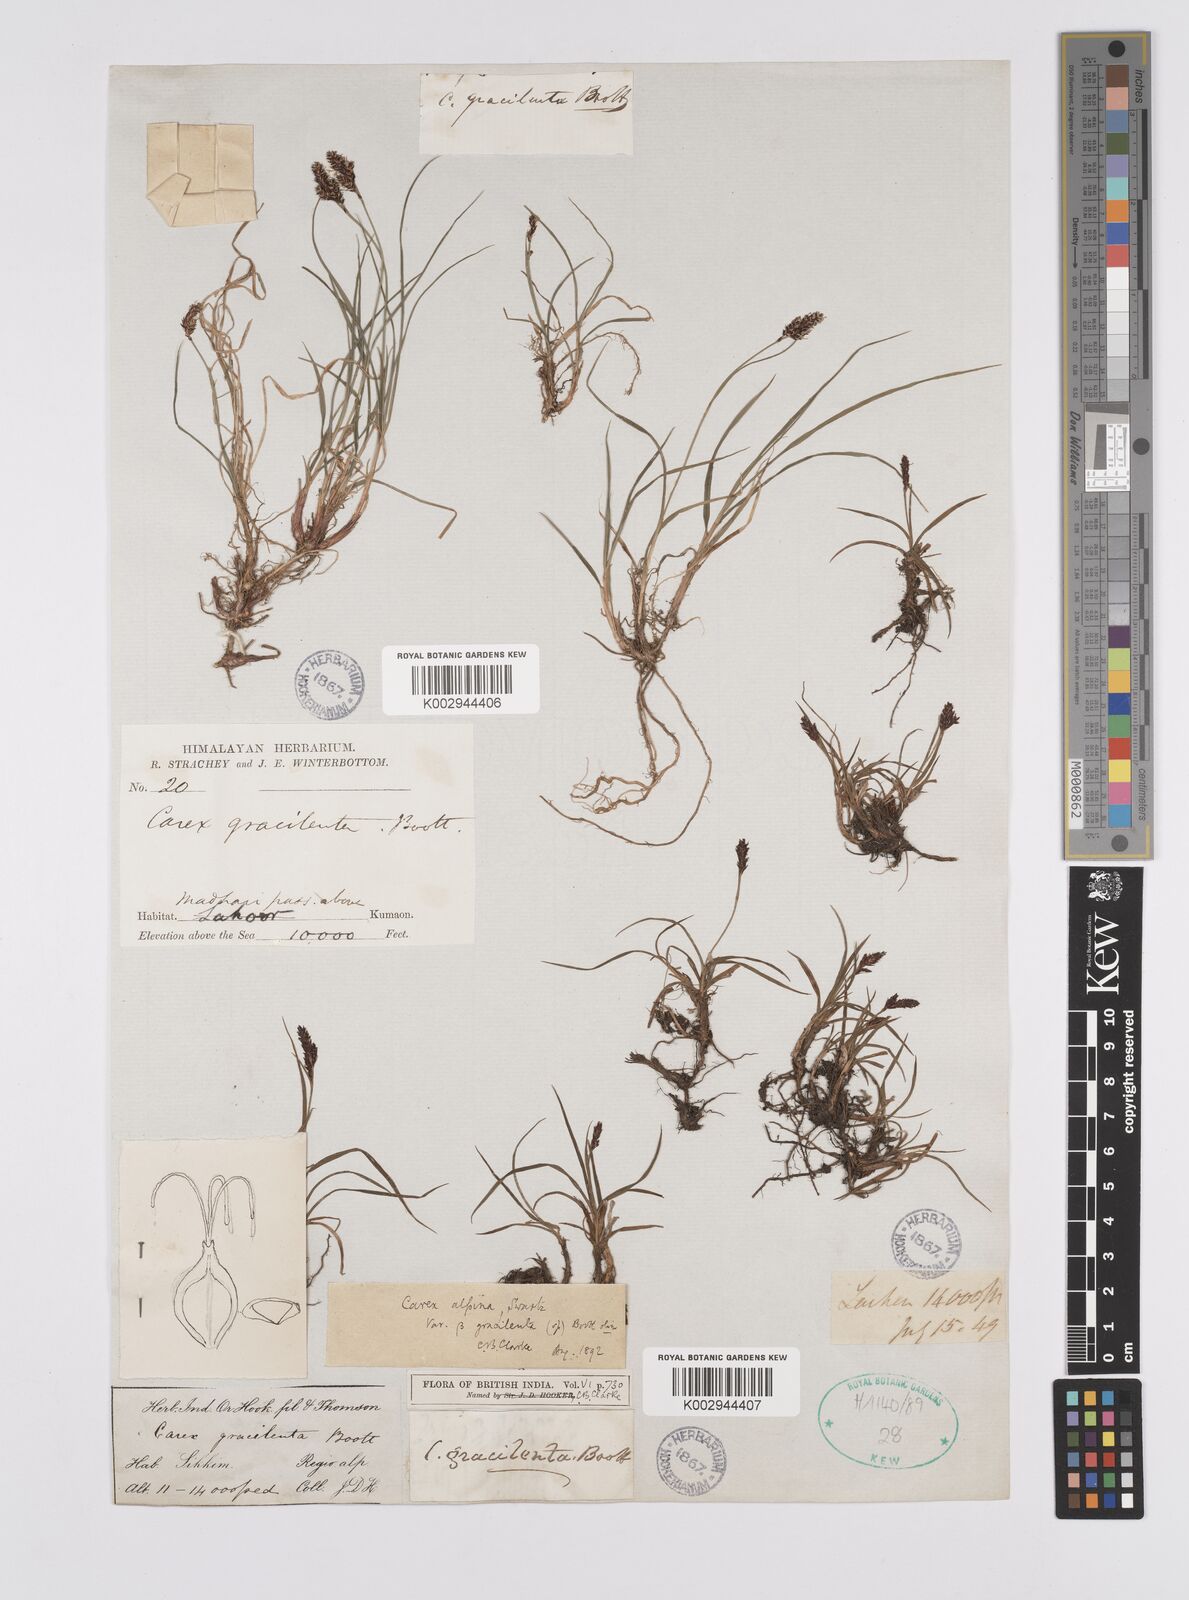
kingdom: Plantae
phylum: Tracheophyta
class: Liliopsida
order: Poales
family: Cyperaceae
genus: Carex
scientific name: Carex norvegica
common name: Close-headed alpine-sedge
